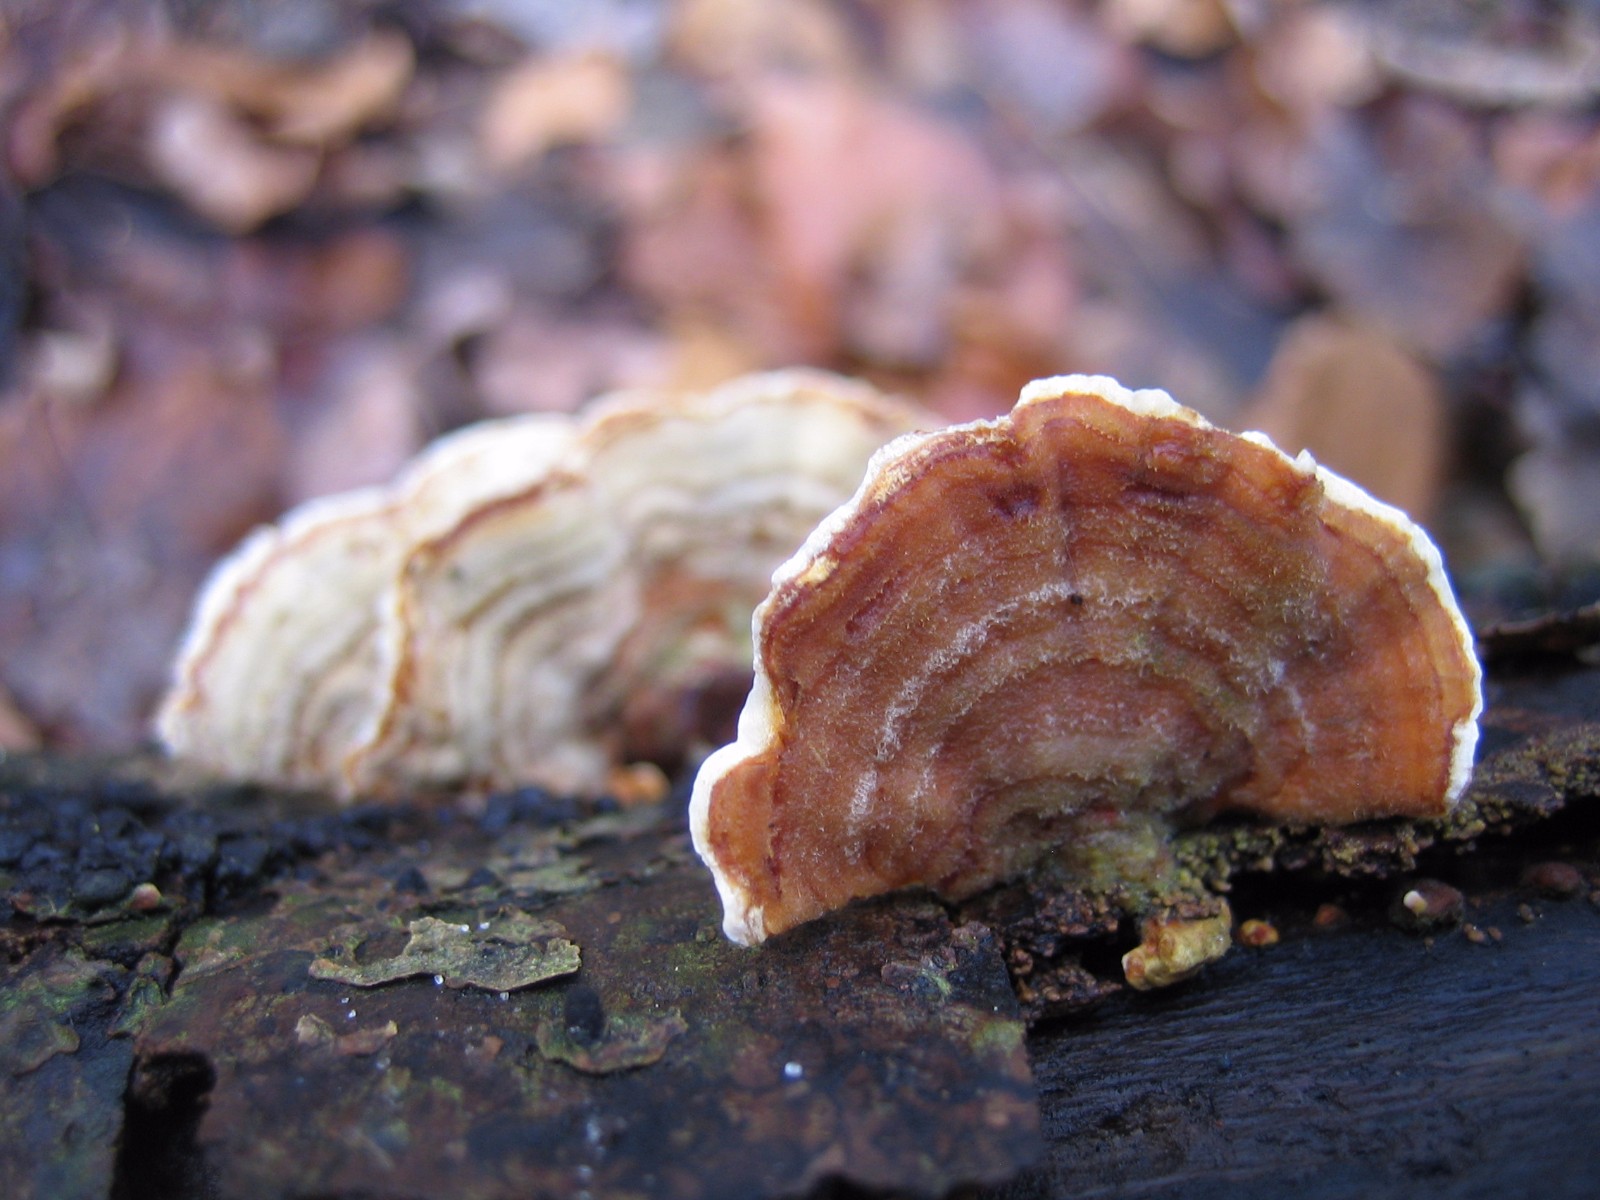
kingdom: Fungi
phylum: Basidiomycota
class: Agaricomycetes
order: Russulales
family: Stereaceae
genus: Stereum
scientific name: Stereum subtomentosum
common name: smuk lædersvamp
